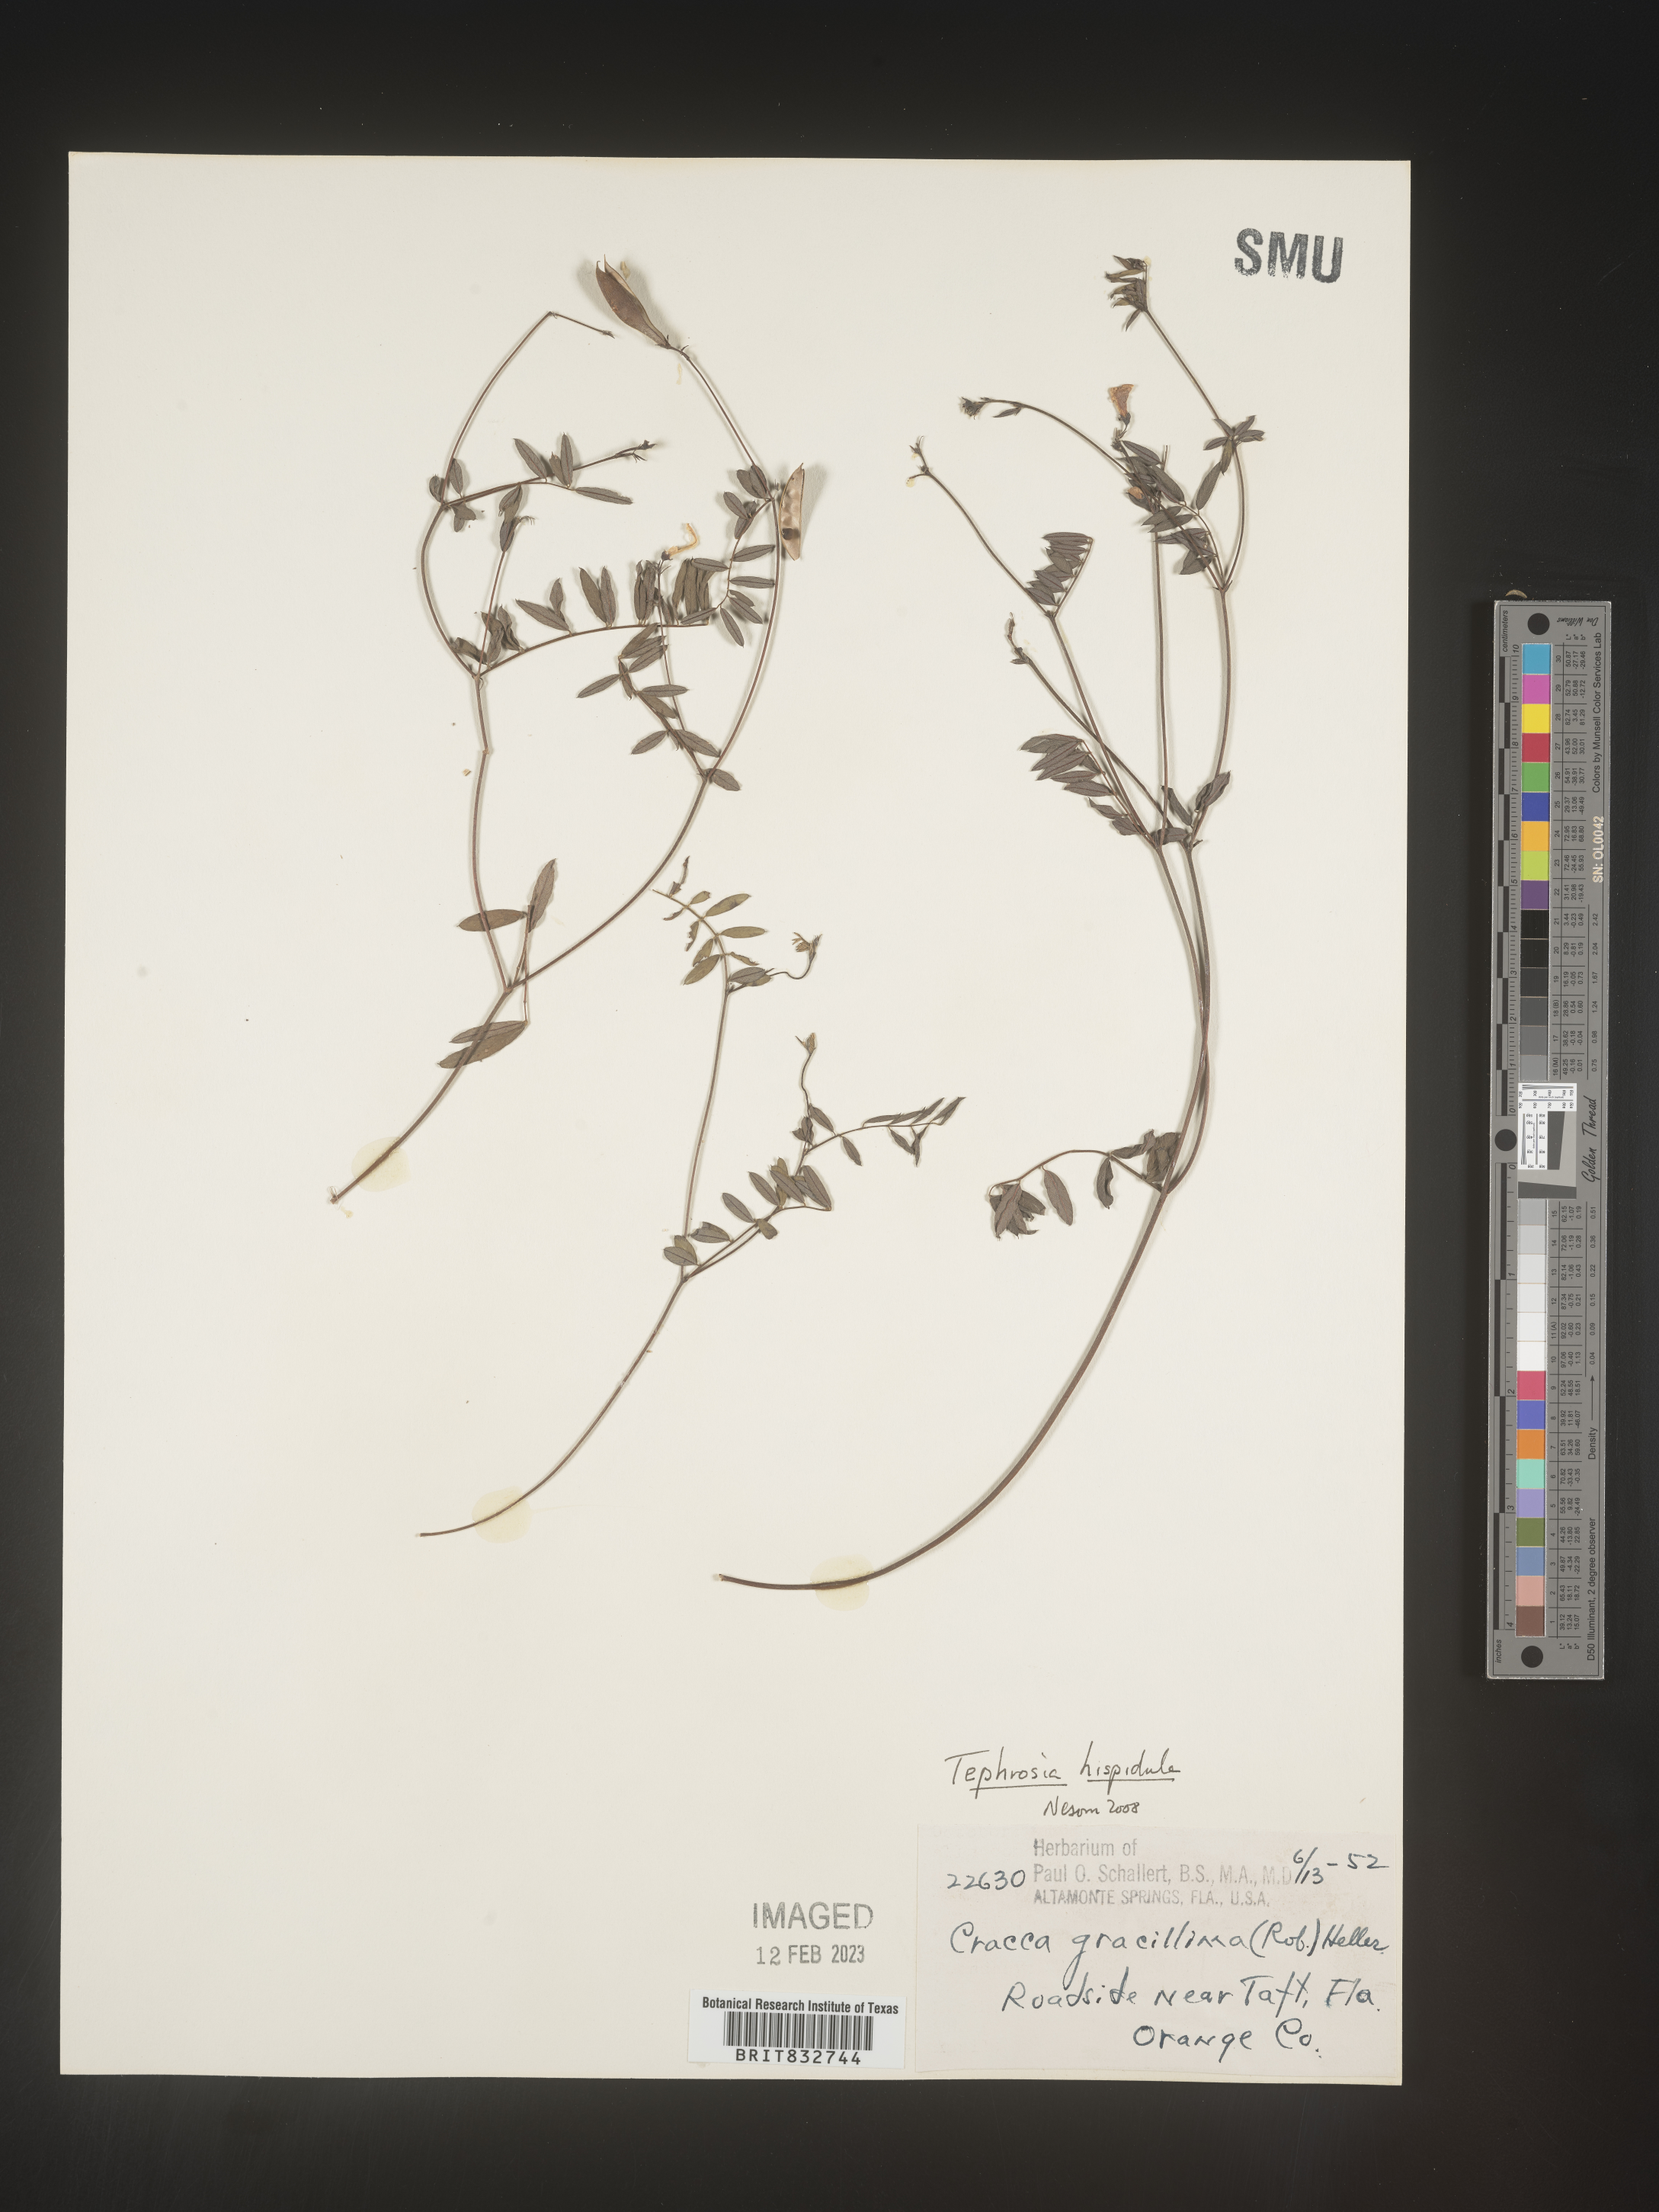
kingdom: Plantae
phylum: Tracheophyta
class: Magnoliopsida
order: Fabales
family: Fabaceae
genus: Tephrosia
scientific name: Tephrosia hispidula
